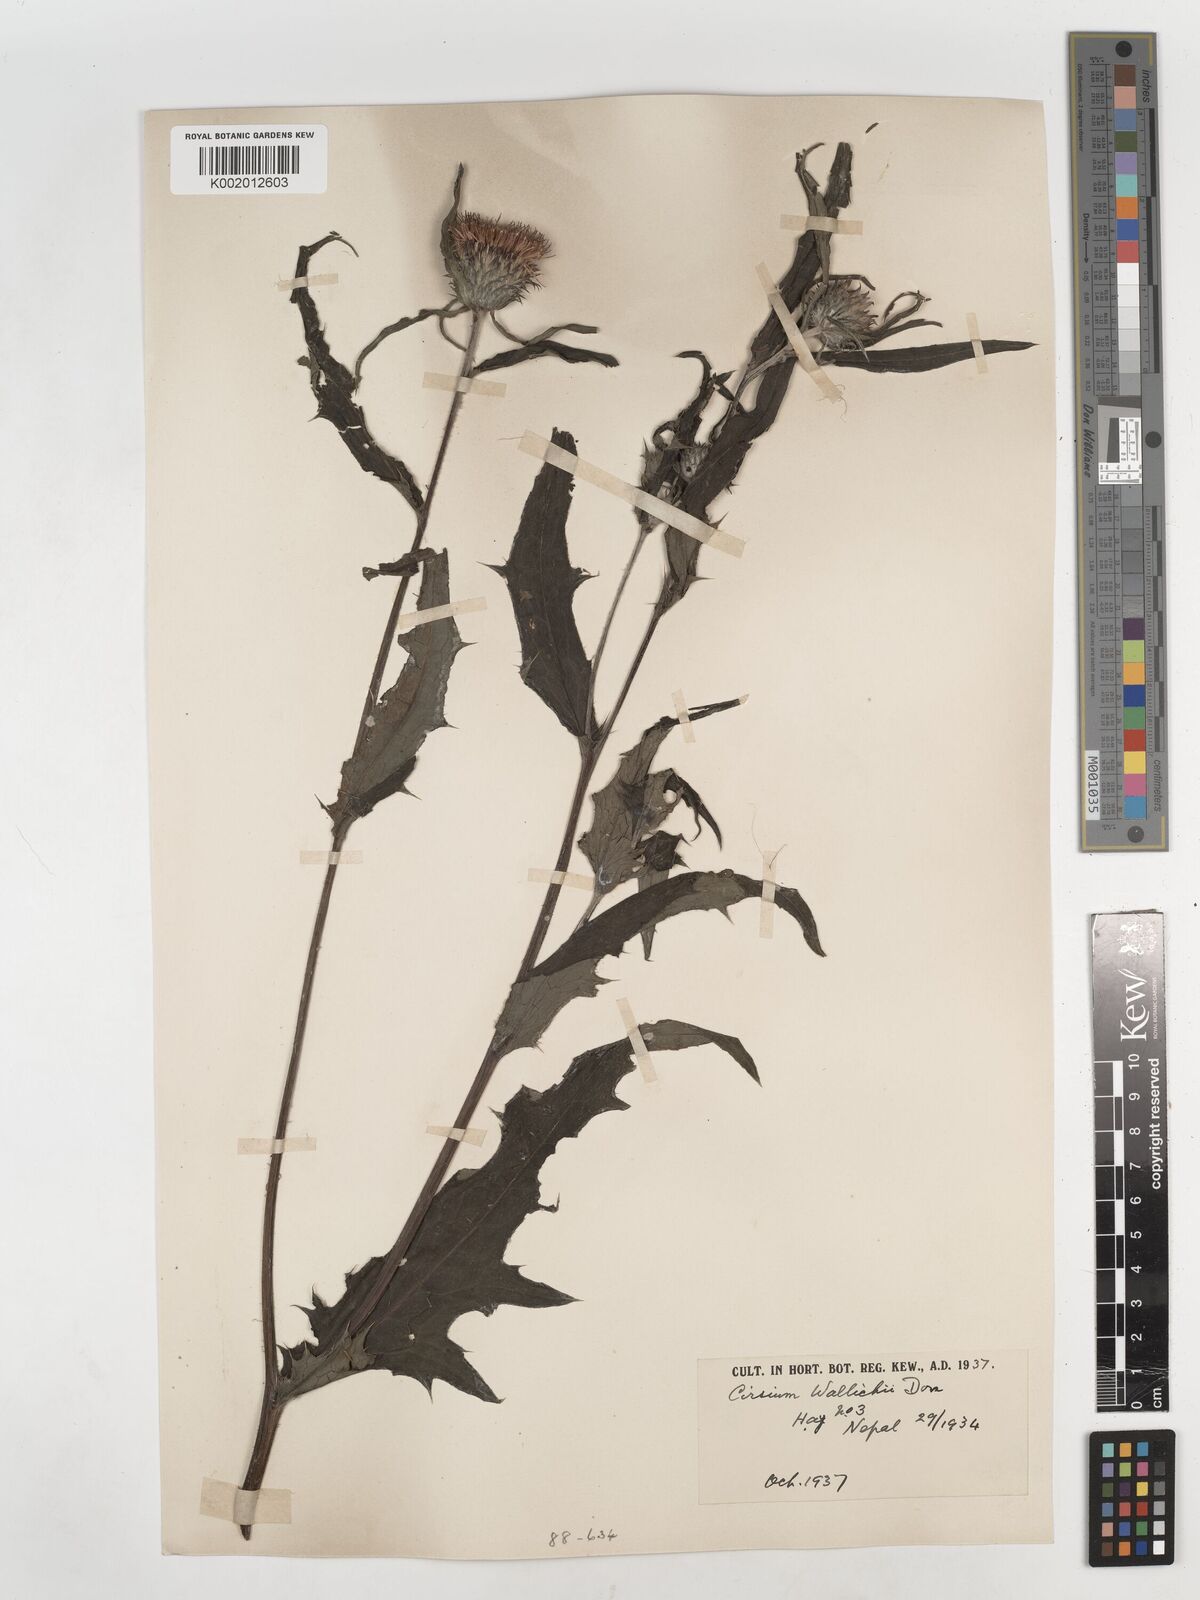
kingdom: Plantae
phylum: Tracheophyta
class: Magnoliopsida
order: Asterales
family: Asteraceae
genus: Cirsium
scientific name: Cirsium wallichii
